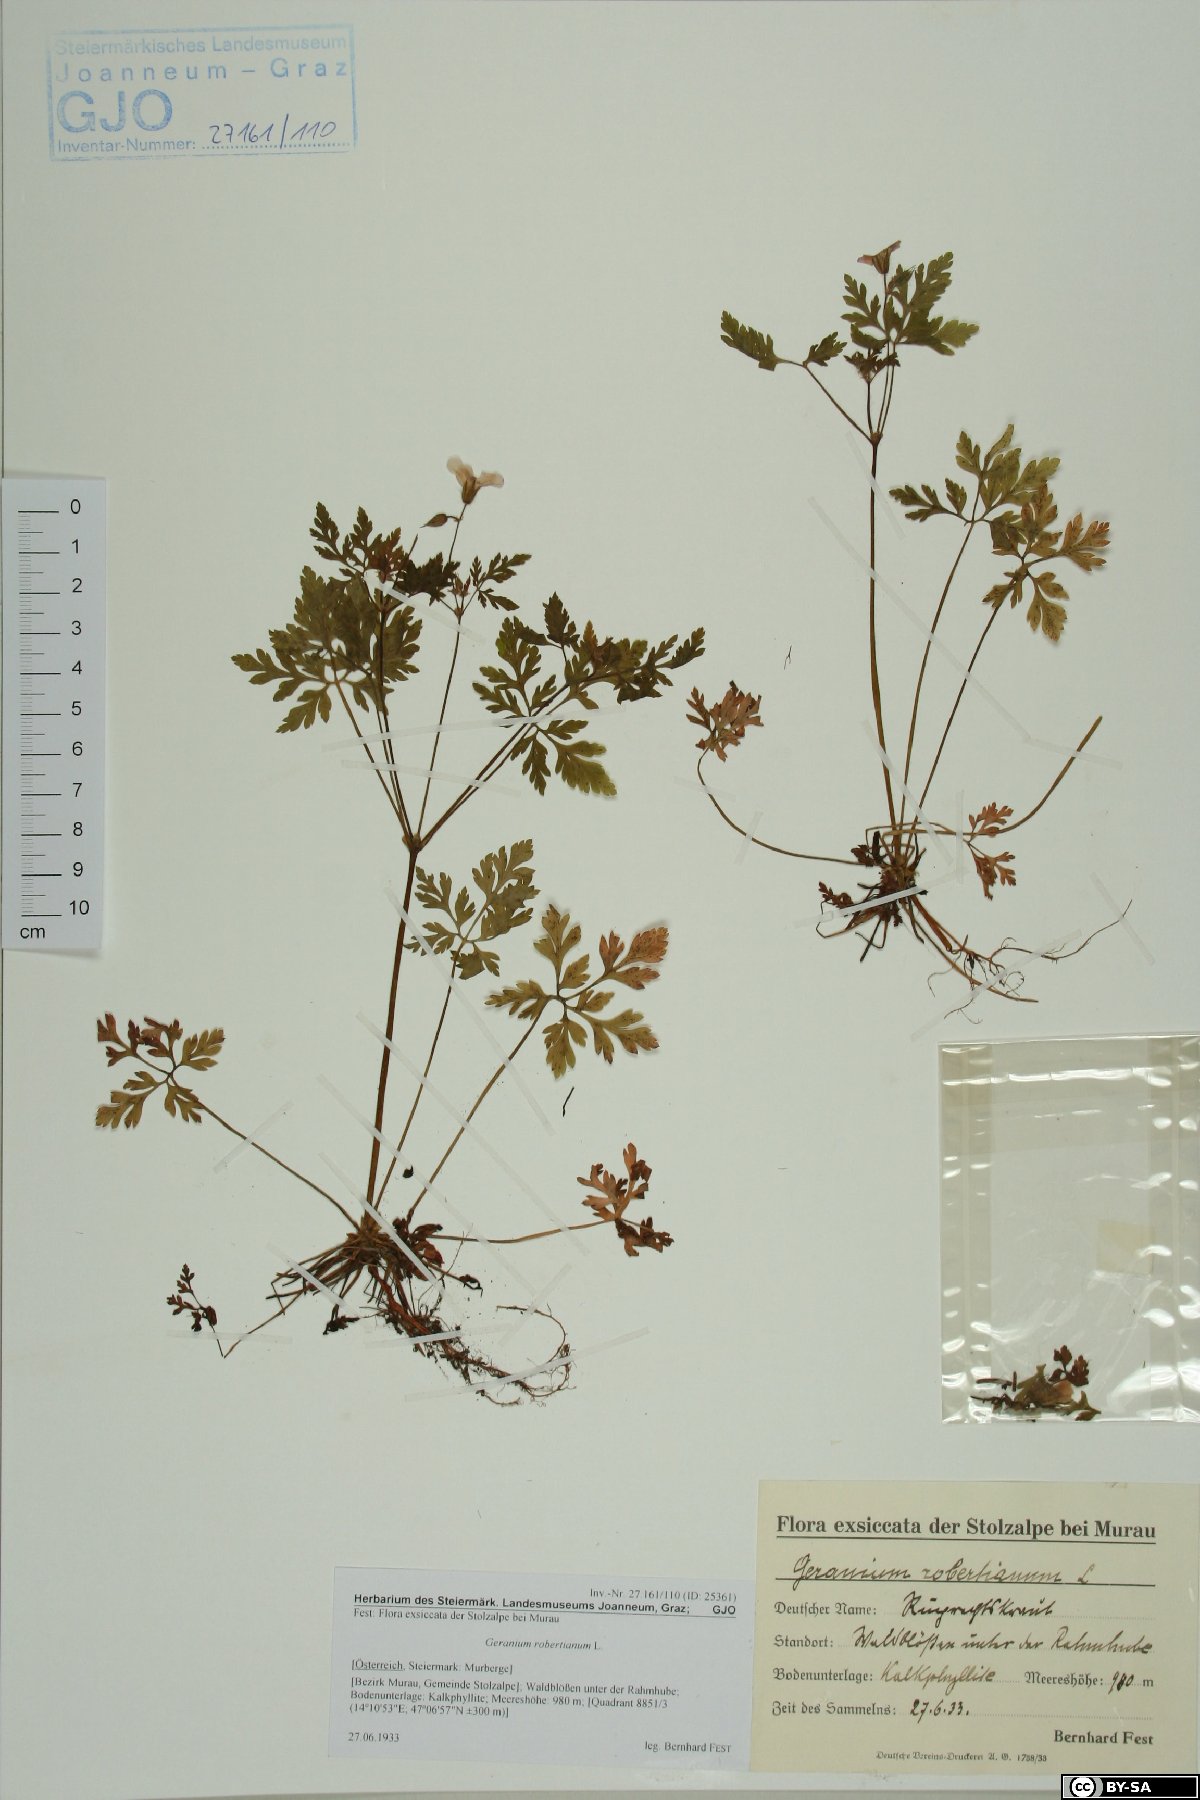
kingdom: Plantae
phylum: Tracheophyta
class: Magnoliopsida
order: Geraniales
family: Geraniaceae
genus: Geranium
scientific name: Geranium robertianum
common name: Herb-robert
